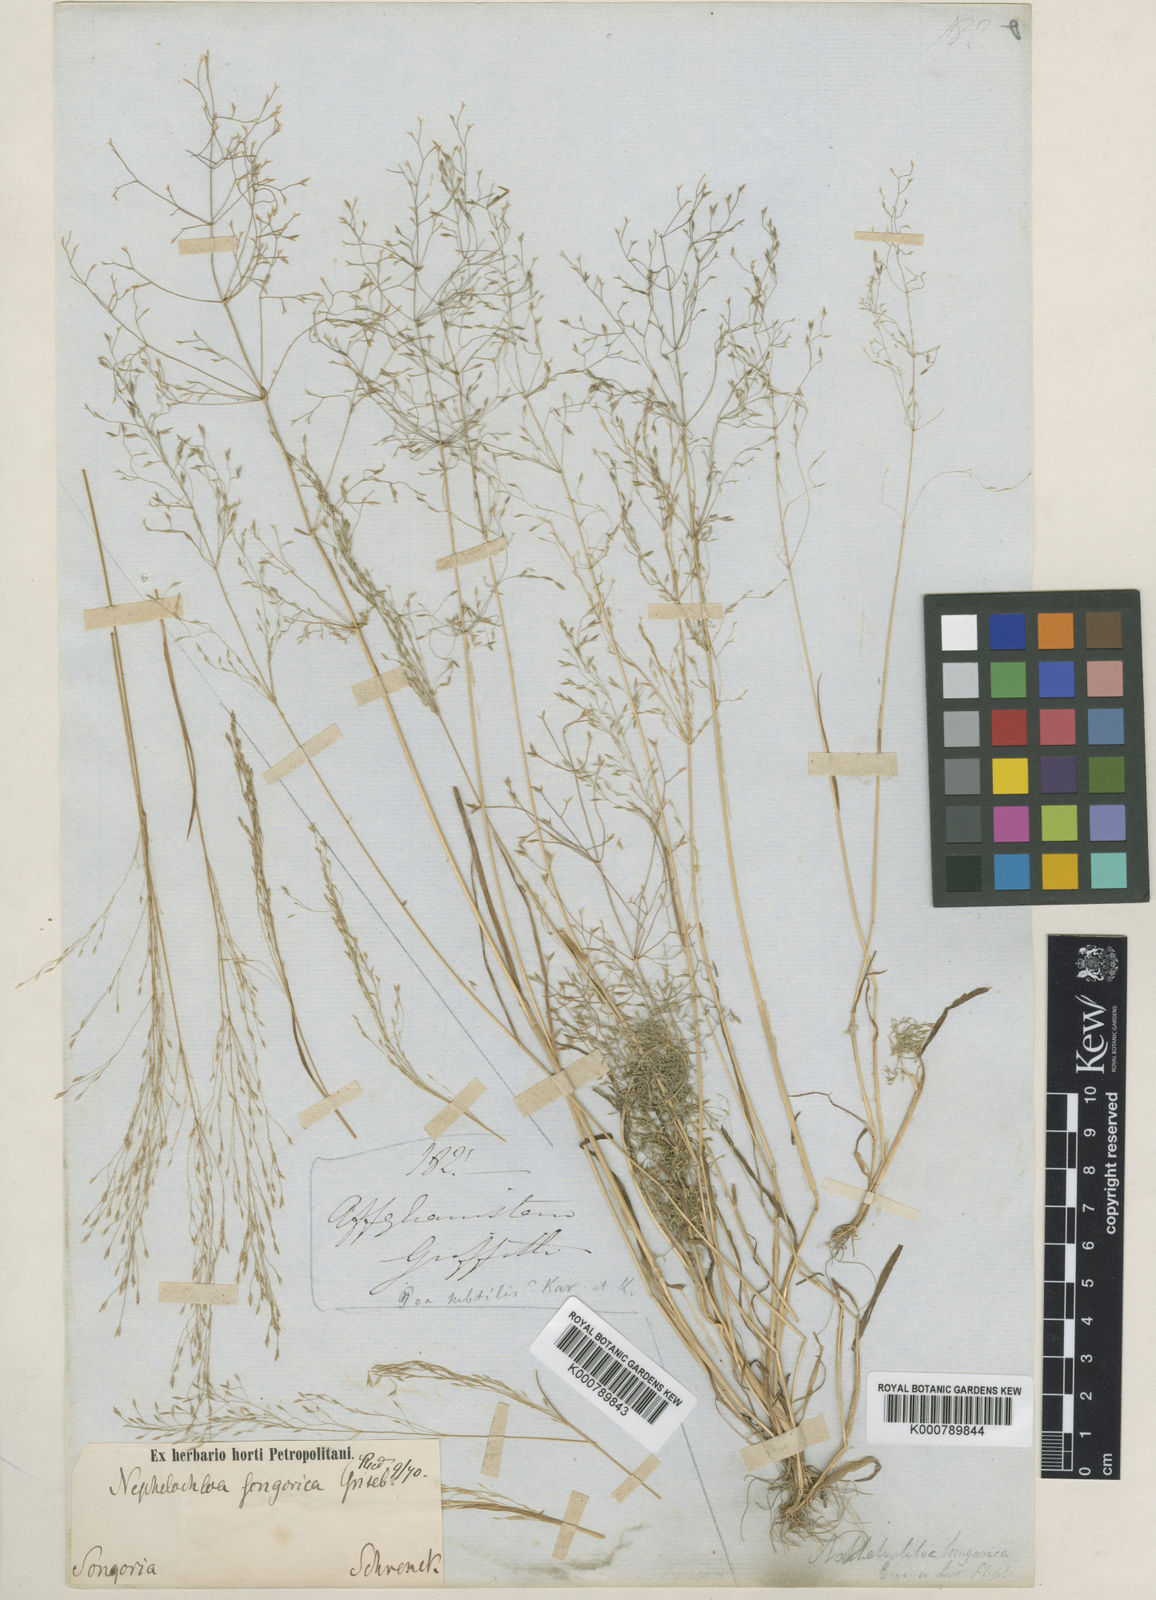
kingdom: Plantae
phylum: Tracheophyta
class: Liliopsida
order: Poales
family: Poaceae
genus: Poa
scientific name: Poa diaphora
